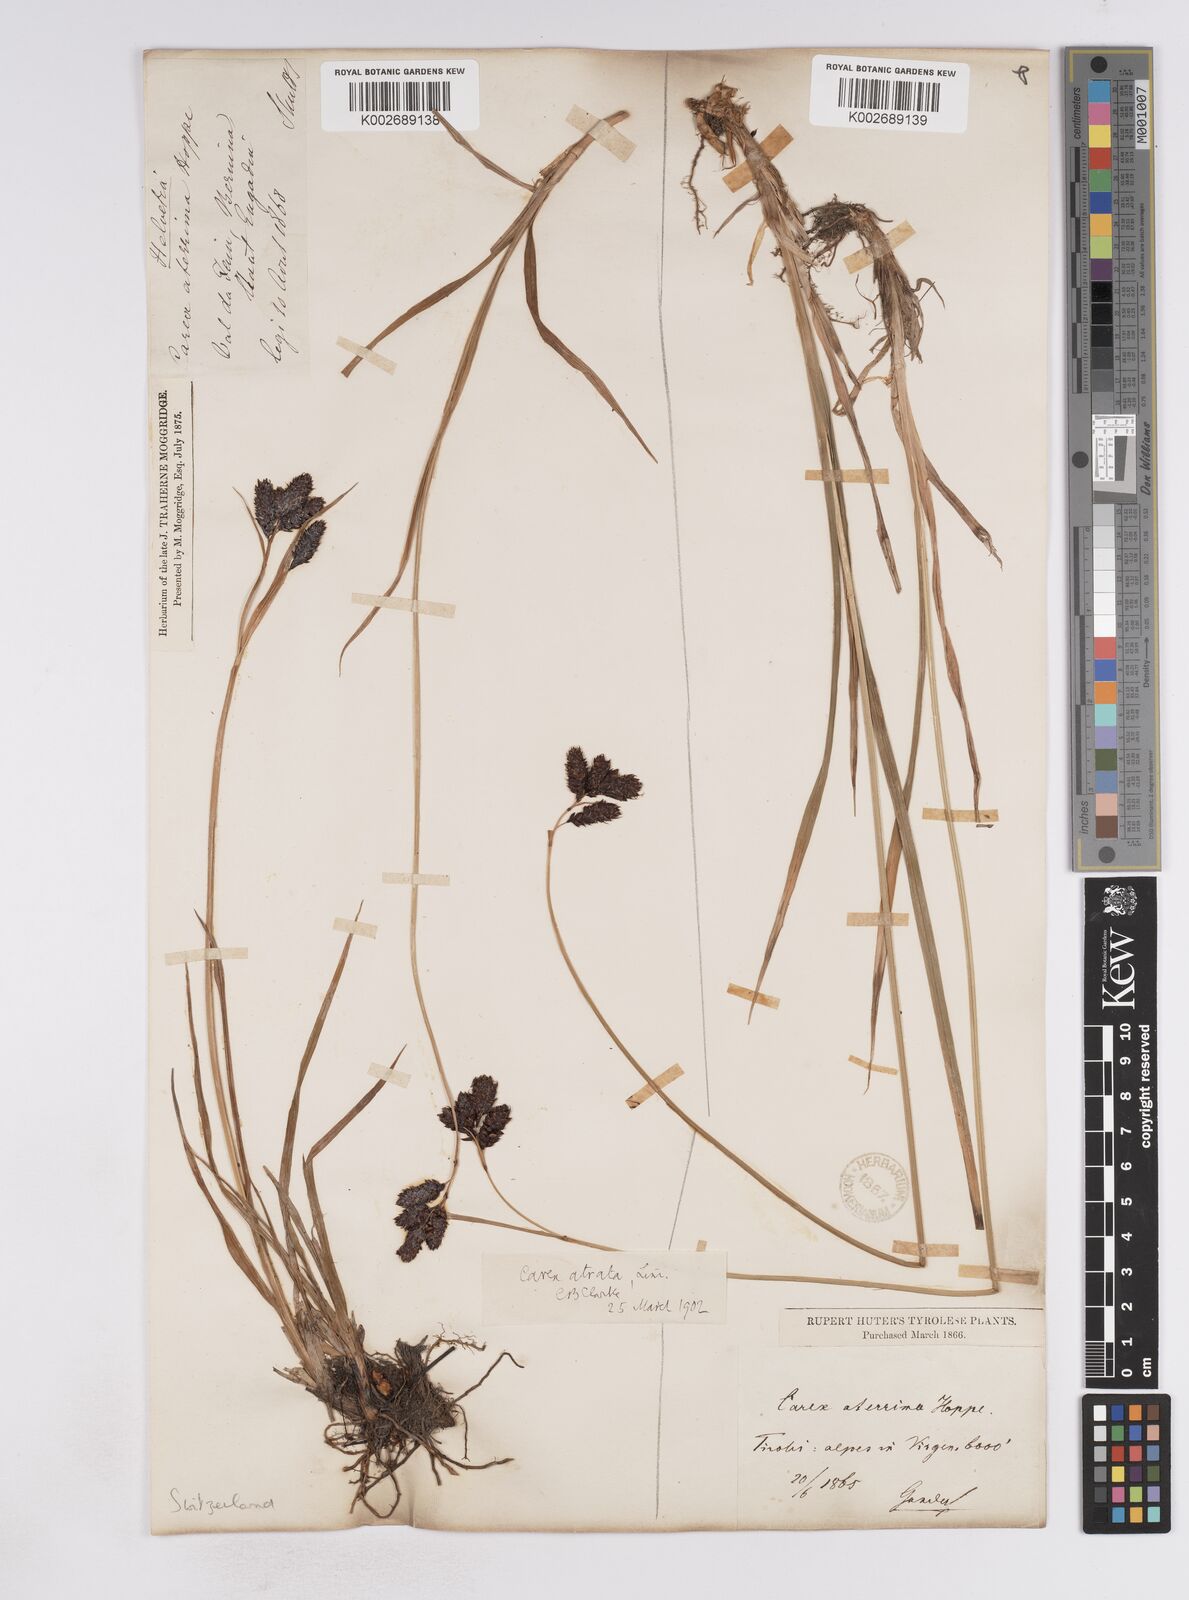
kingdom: Plantae
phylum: Tracheophyta
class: Liliopsida
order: Poales
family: Cyperaceae
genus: Carex
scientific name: Carex aterrima
